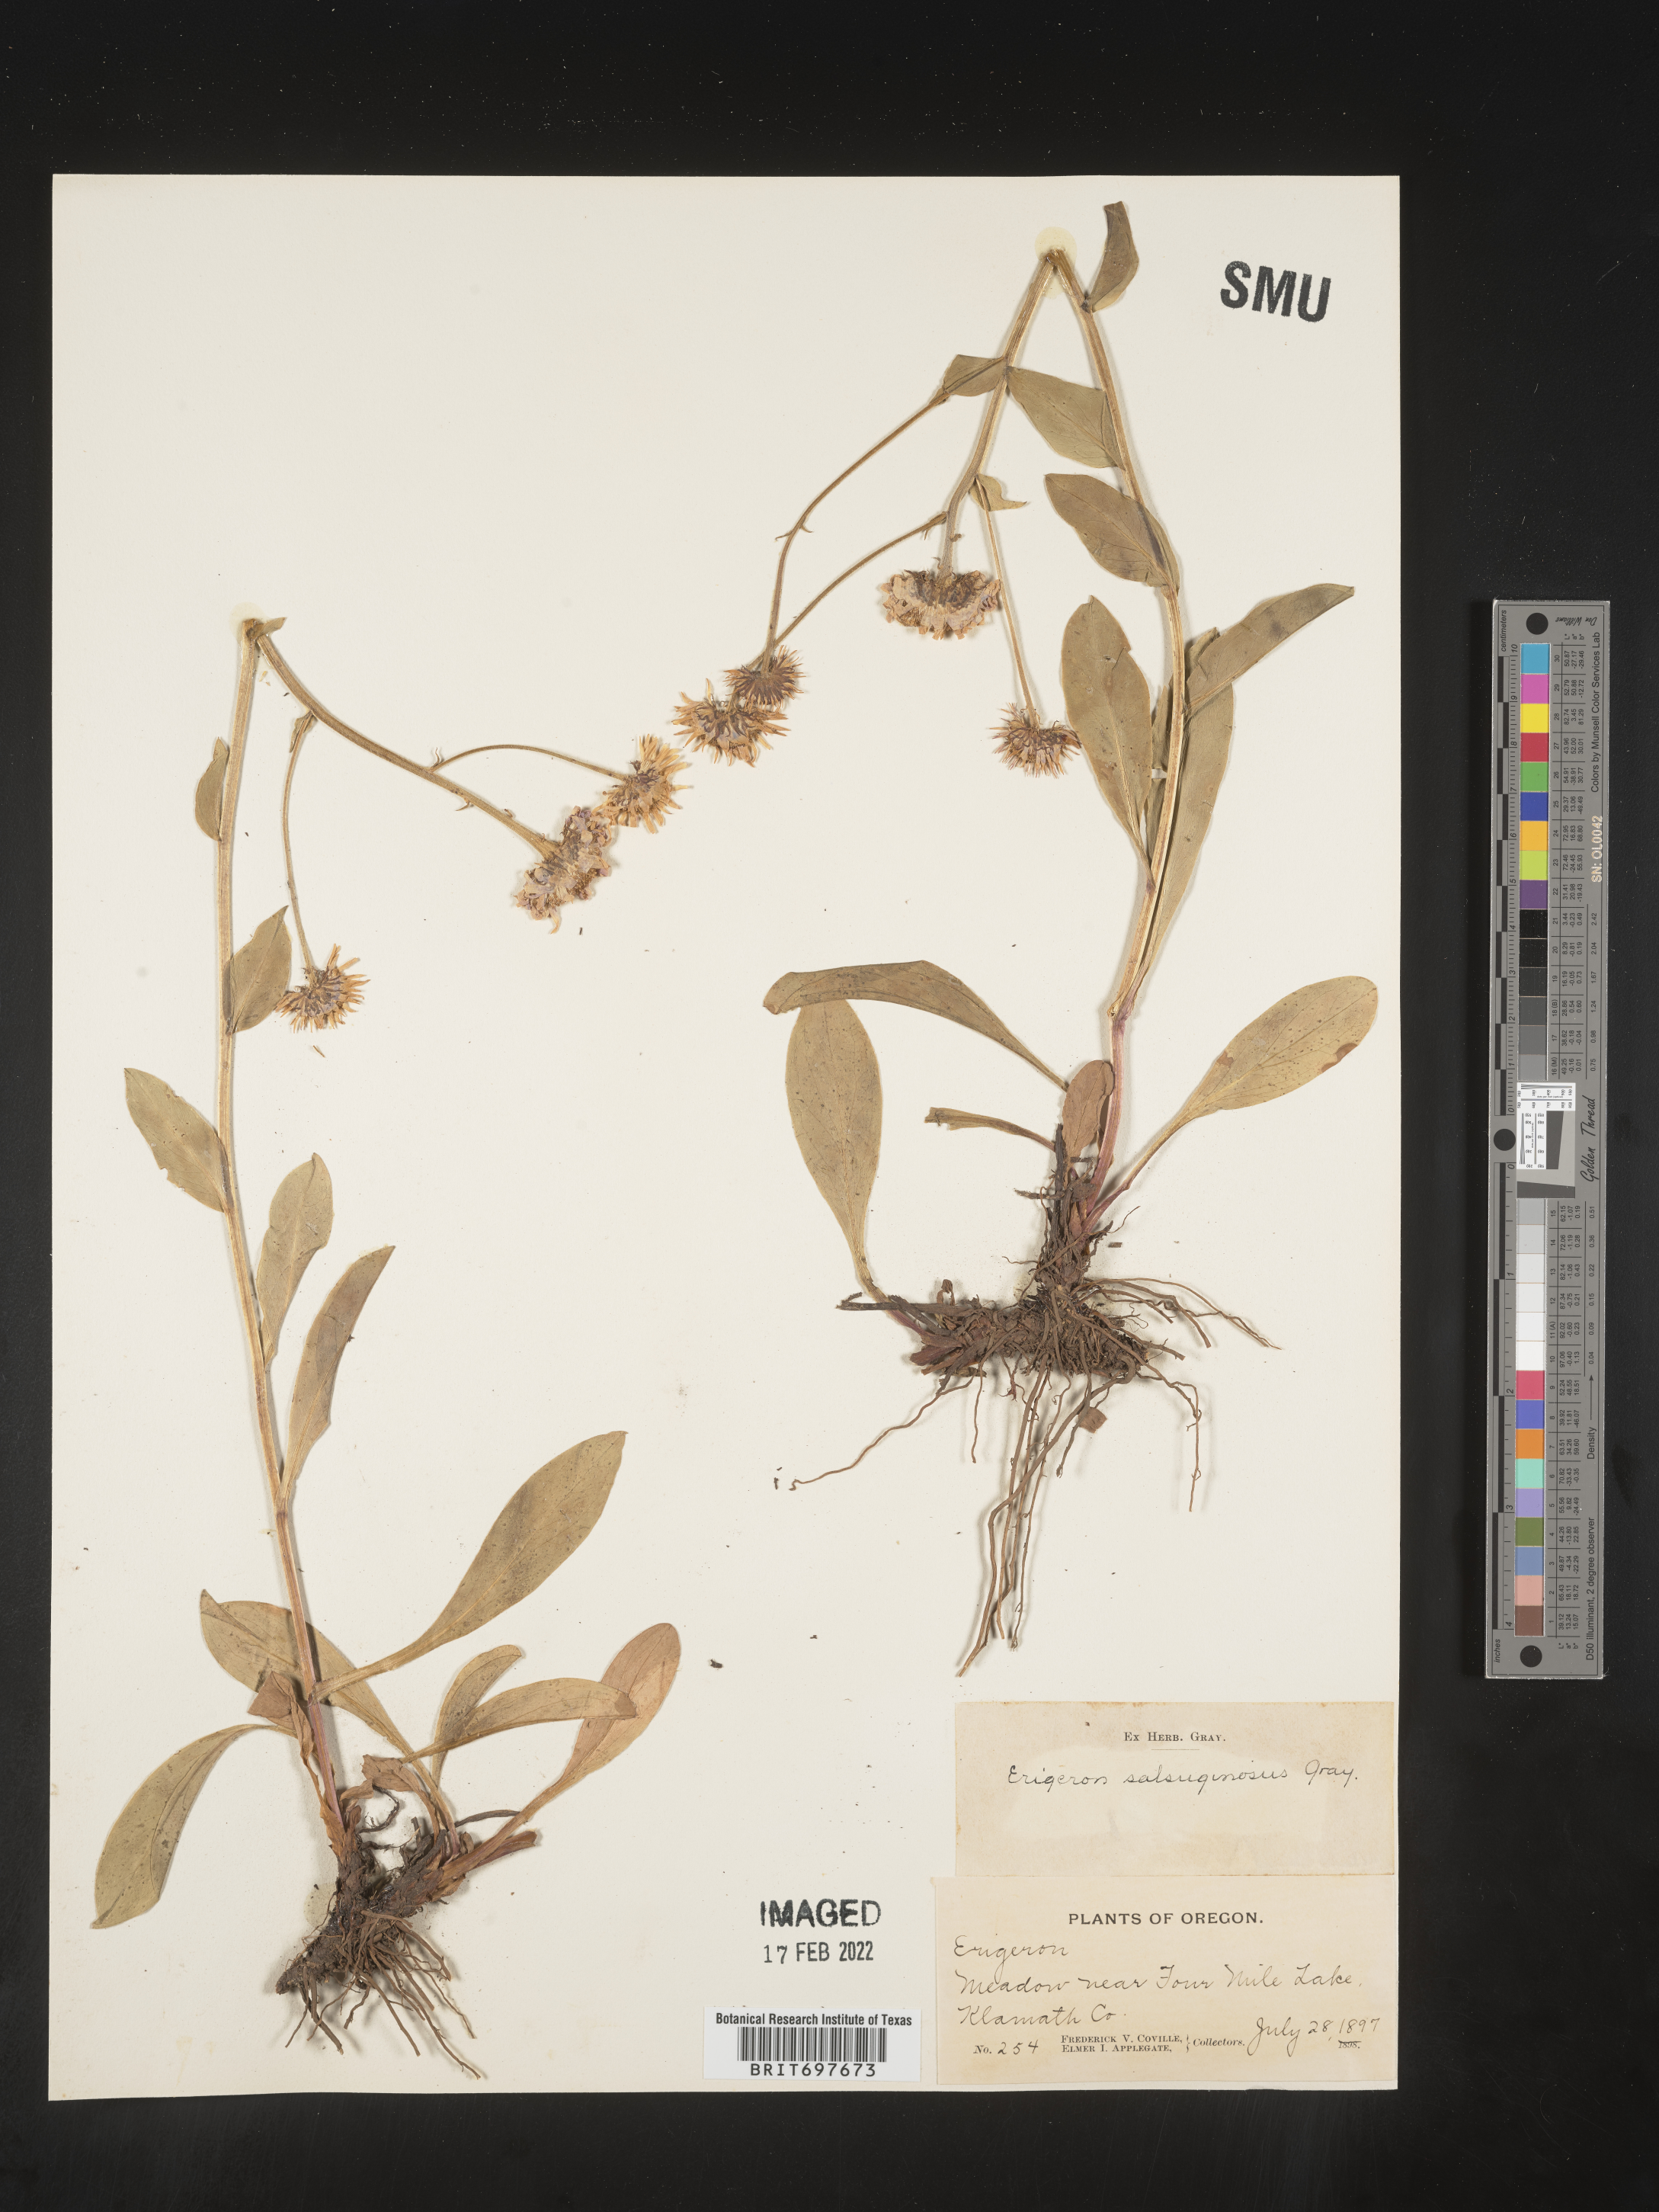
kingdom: Plantae
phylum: Tracheophyta
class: Magnoliopsida
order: Asterales
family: Asteraceae
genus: Eurybia
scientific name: Eurybia sibirica
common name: Arctic aster
